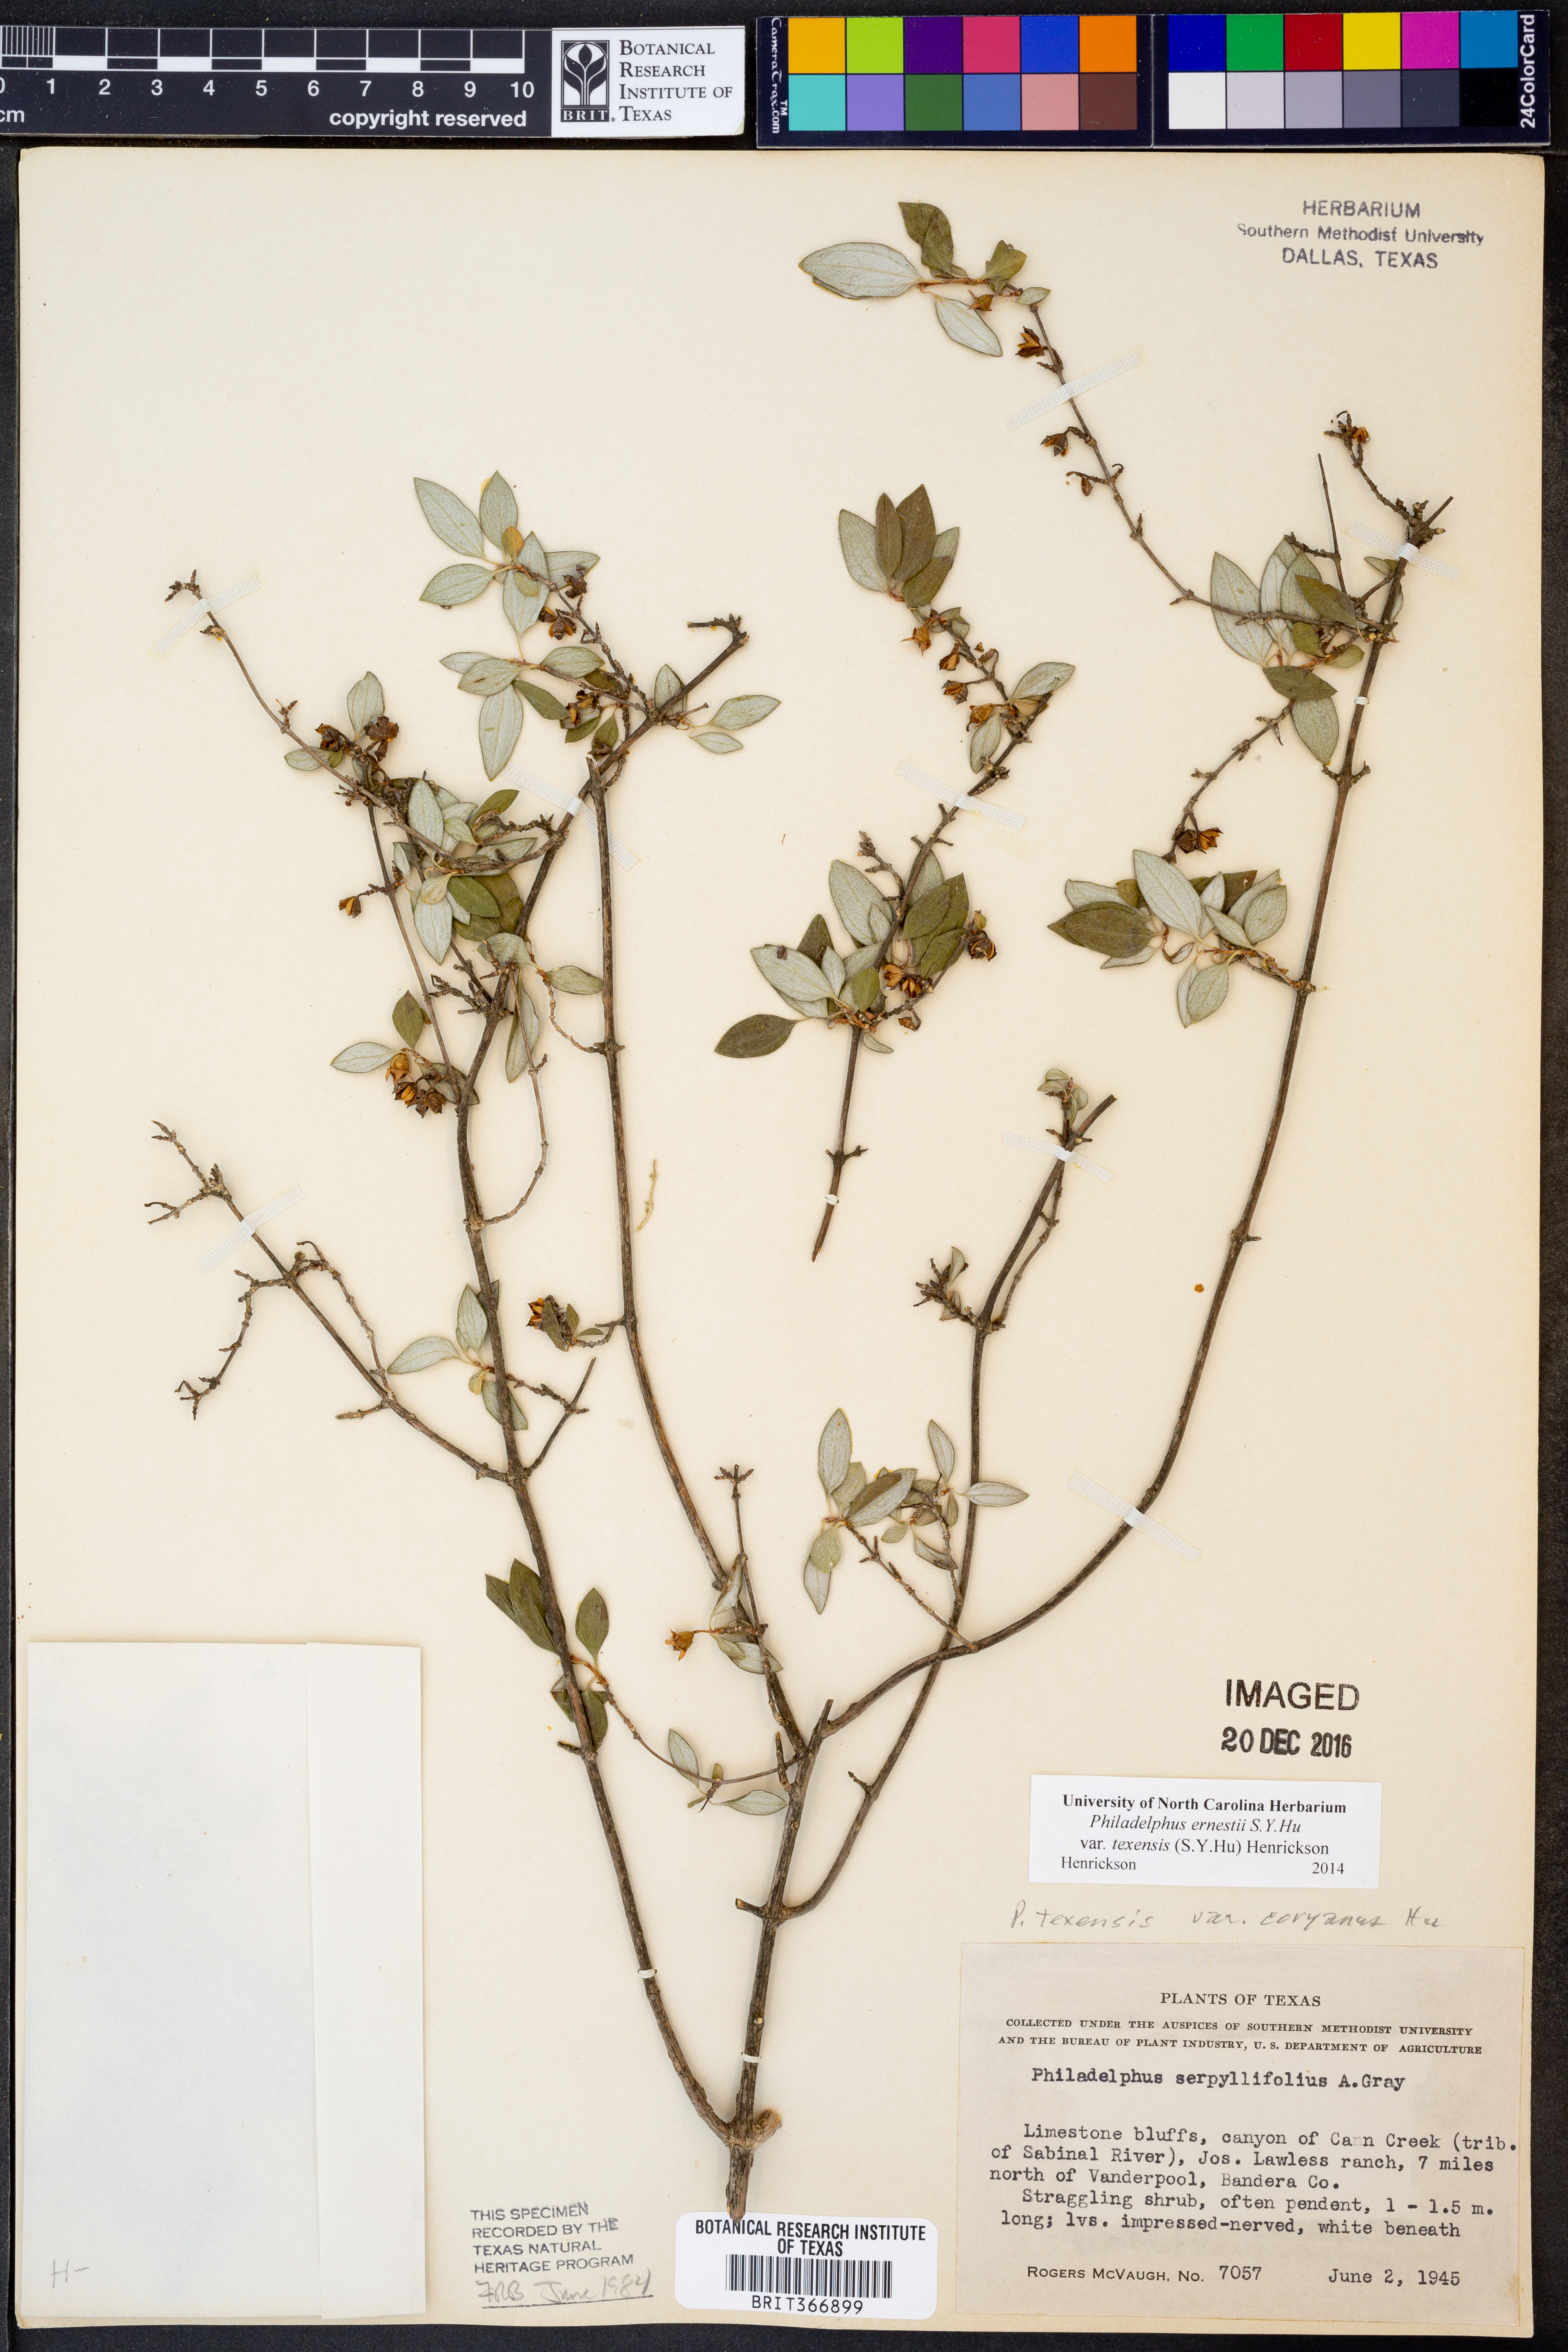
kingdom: Plantae
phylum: Tracheophyta
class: Magnoliopsida
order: Cornales
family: Hydrangeaceae
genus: Philadelphus
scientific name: Philadelphus texensis
